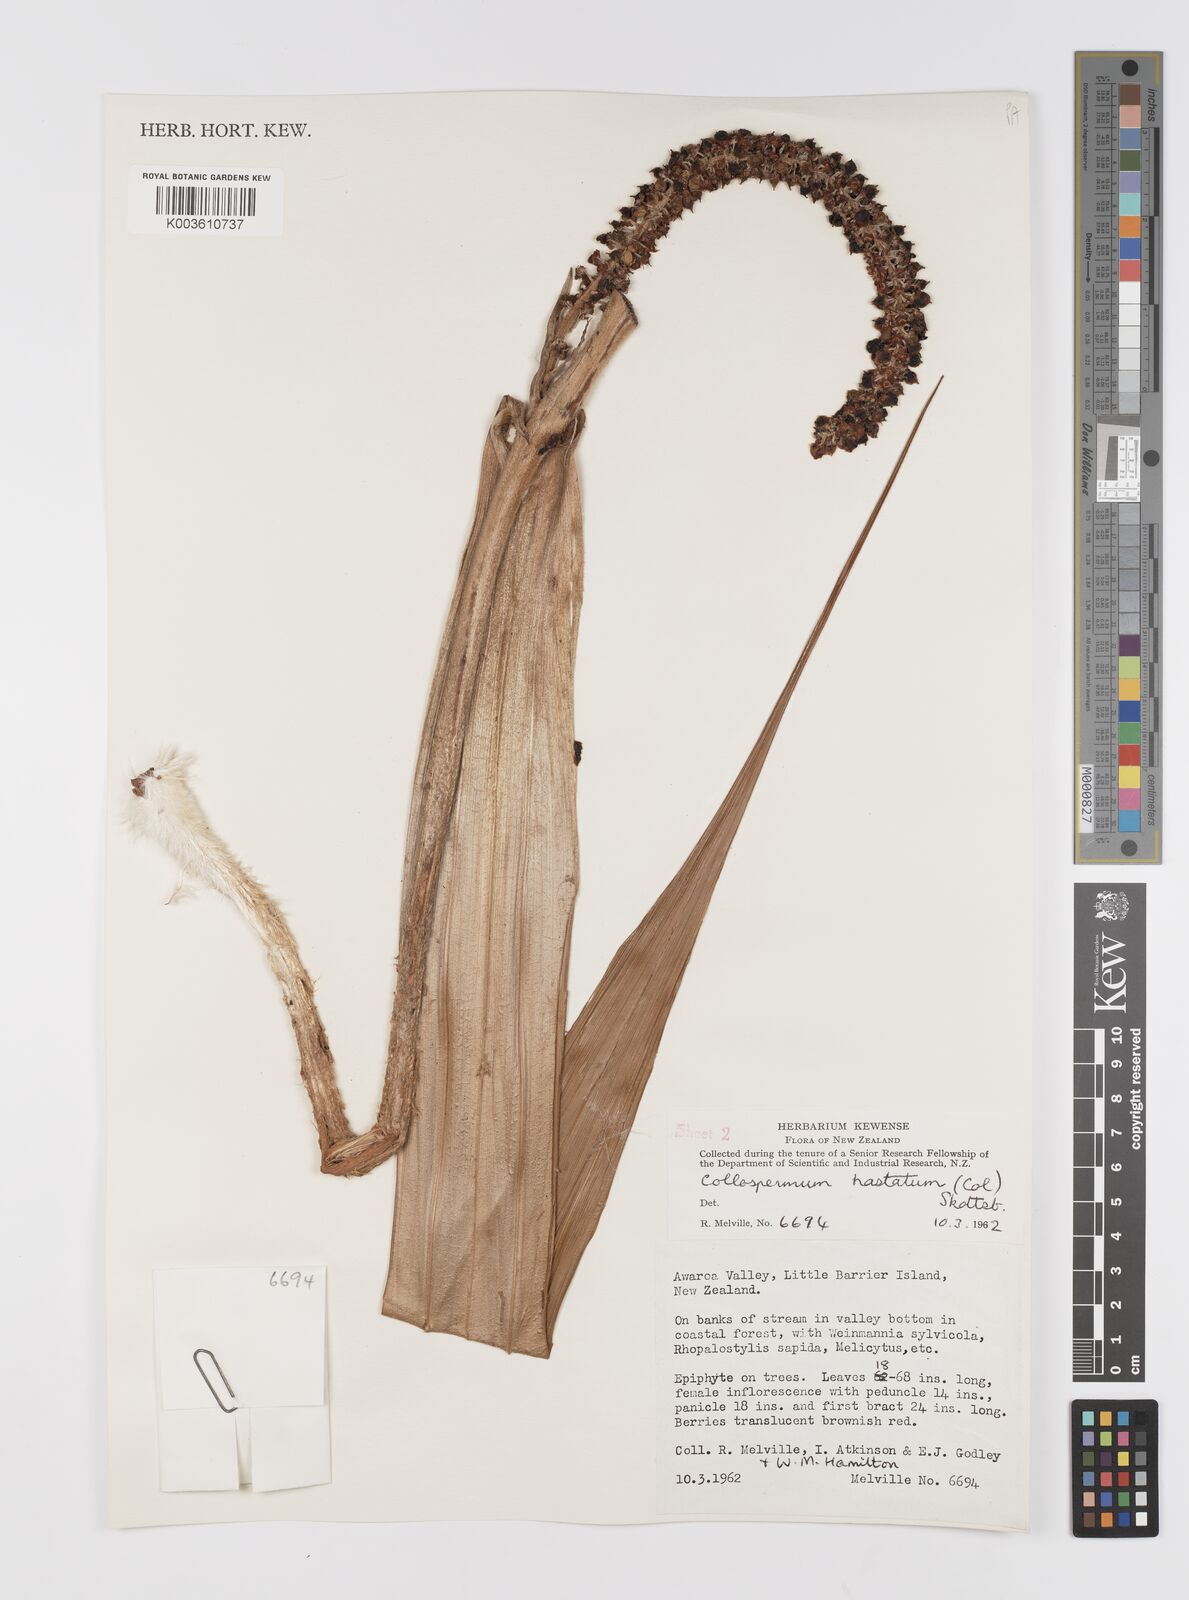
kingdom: Plantae
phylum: Tracheophyta
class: Liliopsida
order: Asparagales
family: Asteliaceae
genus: Astelia
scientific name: Astelia hastata
